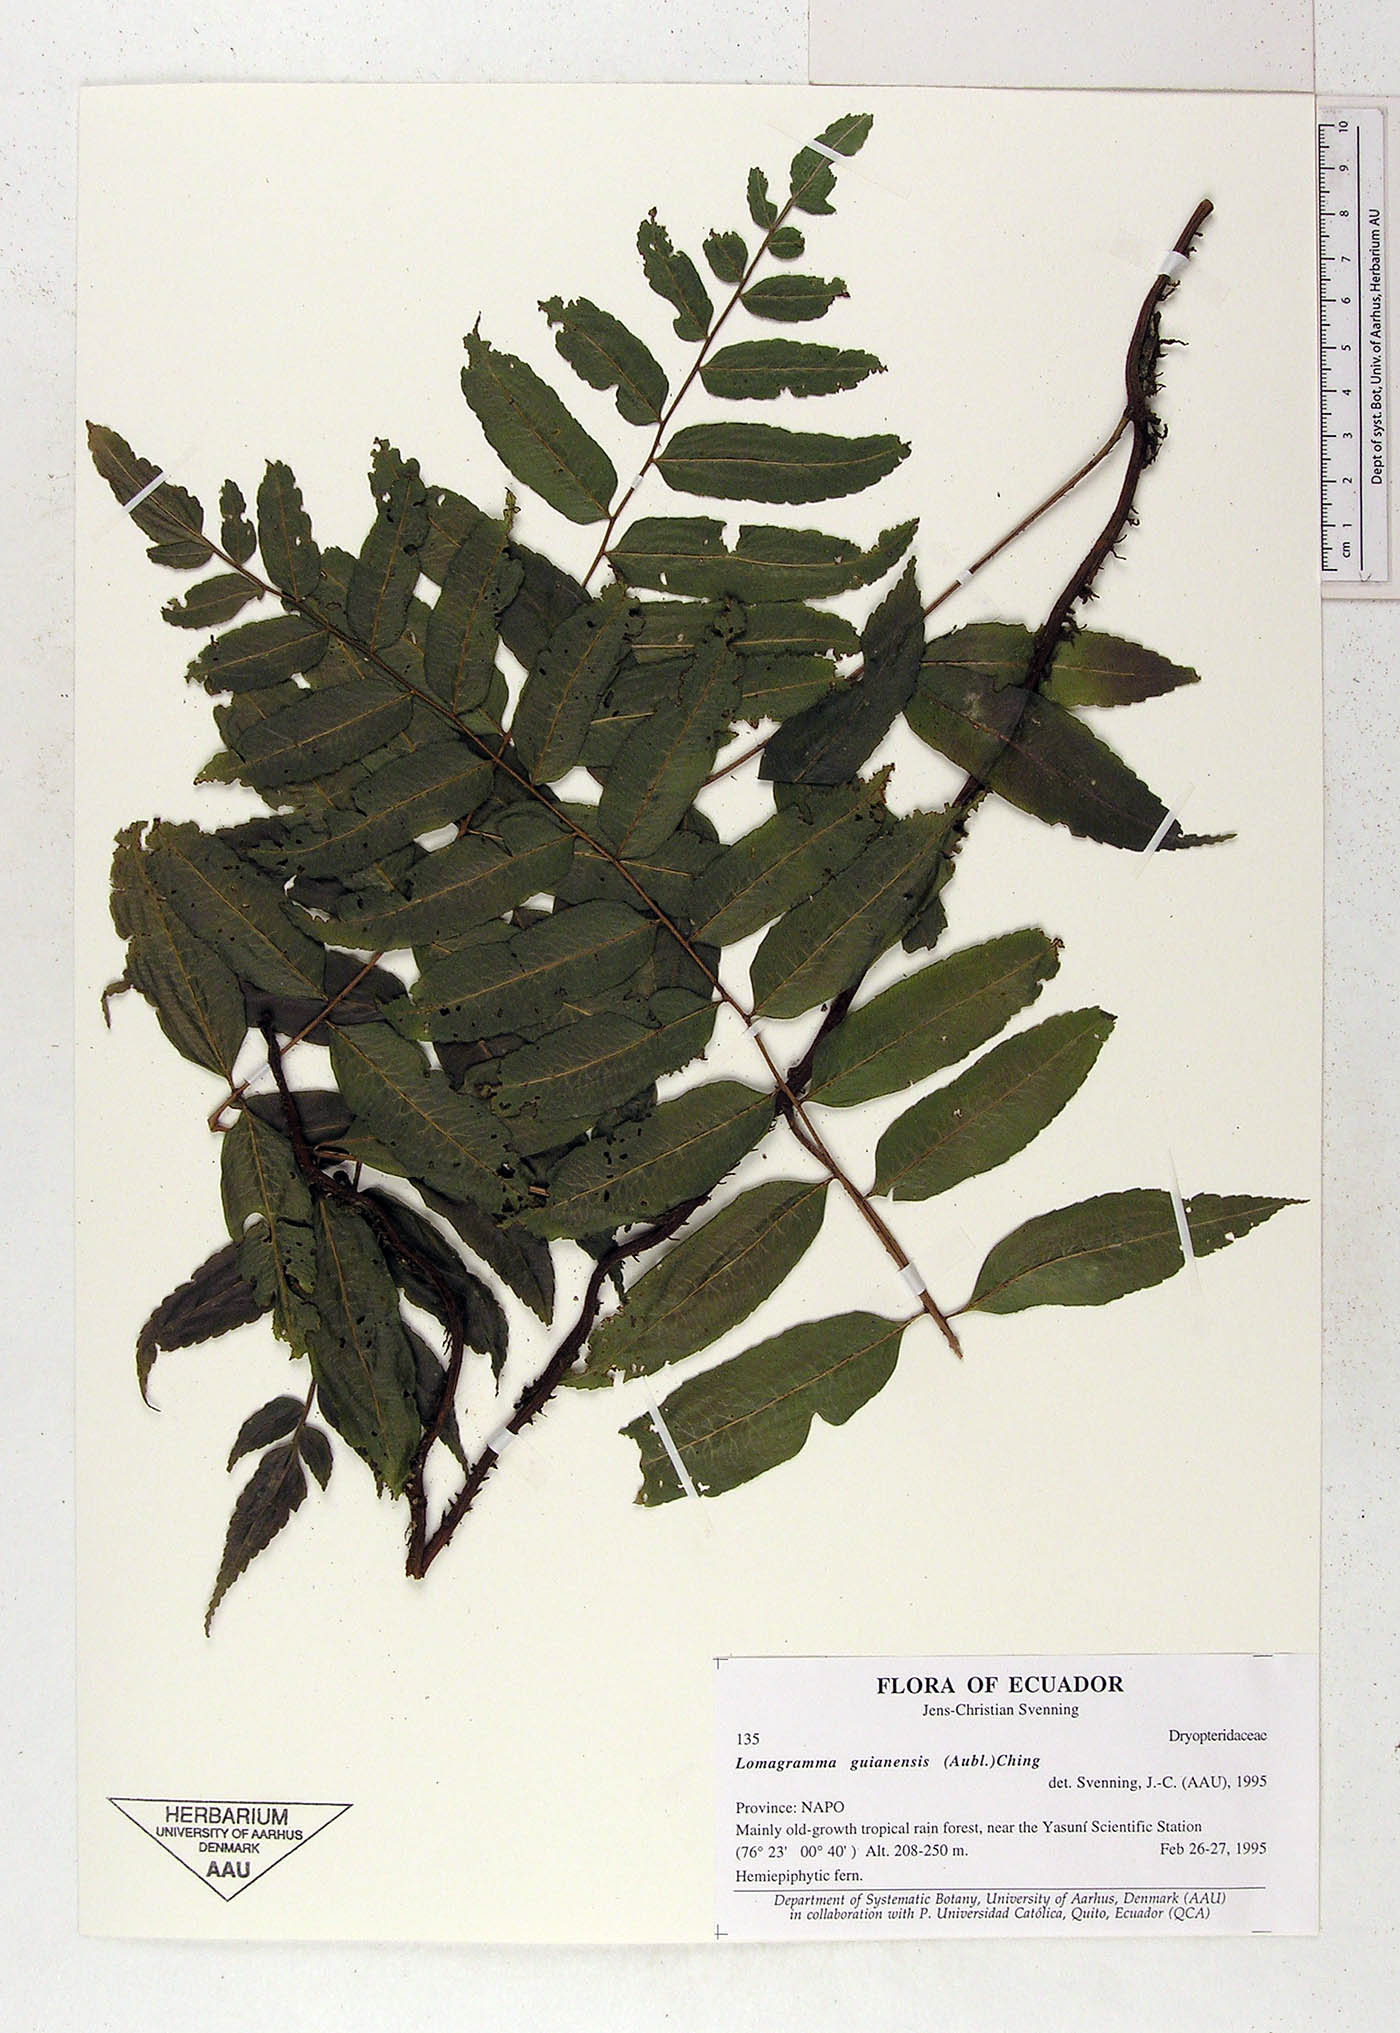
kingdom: Plantae
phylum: Tracheophyta
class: Polypodiopsida
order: Polypodiales
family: Dryopteridaceae
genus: Mickelia
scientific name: Mickelia guianensis
